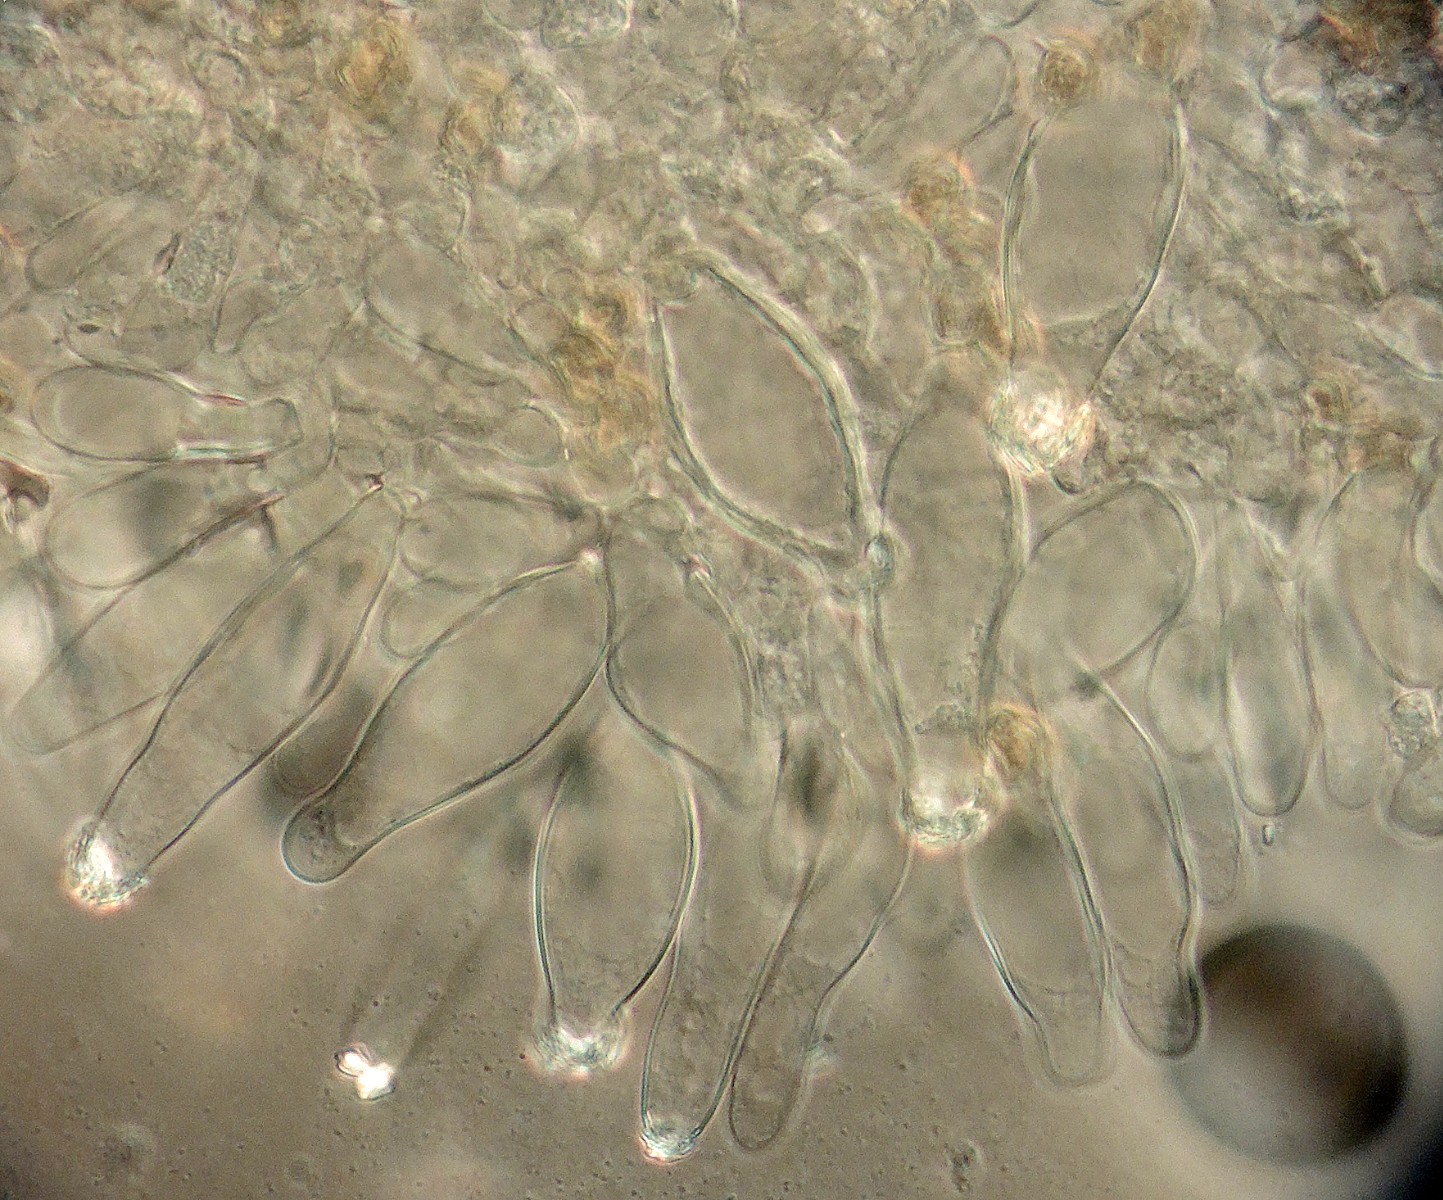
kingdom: Fungi
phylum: Basidiomycota
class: Agaricomycetes
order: Agaricales
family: Inocybaceae
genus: Inocybe
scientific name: Inocybe assimilata
